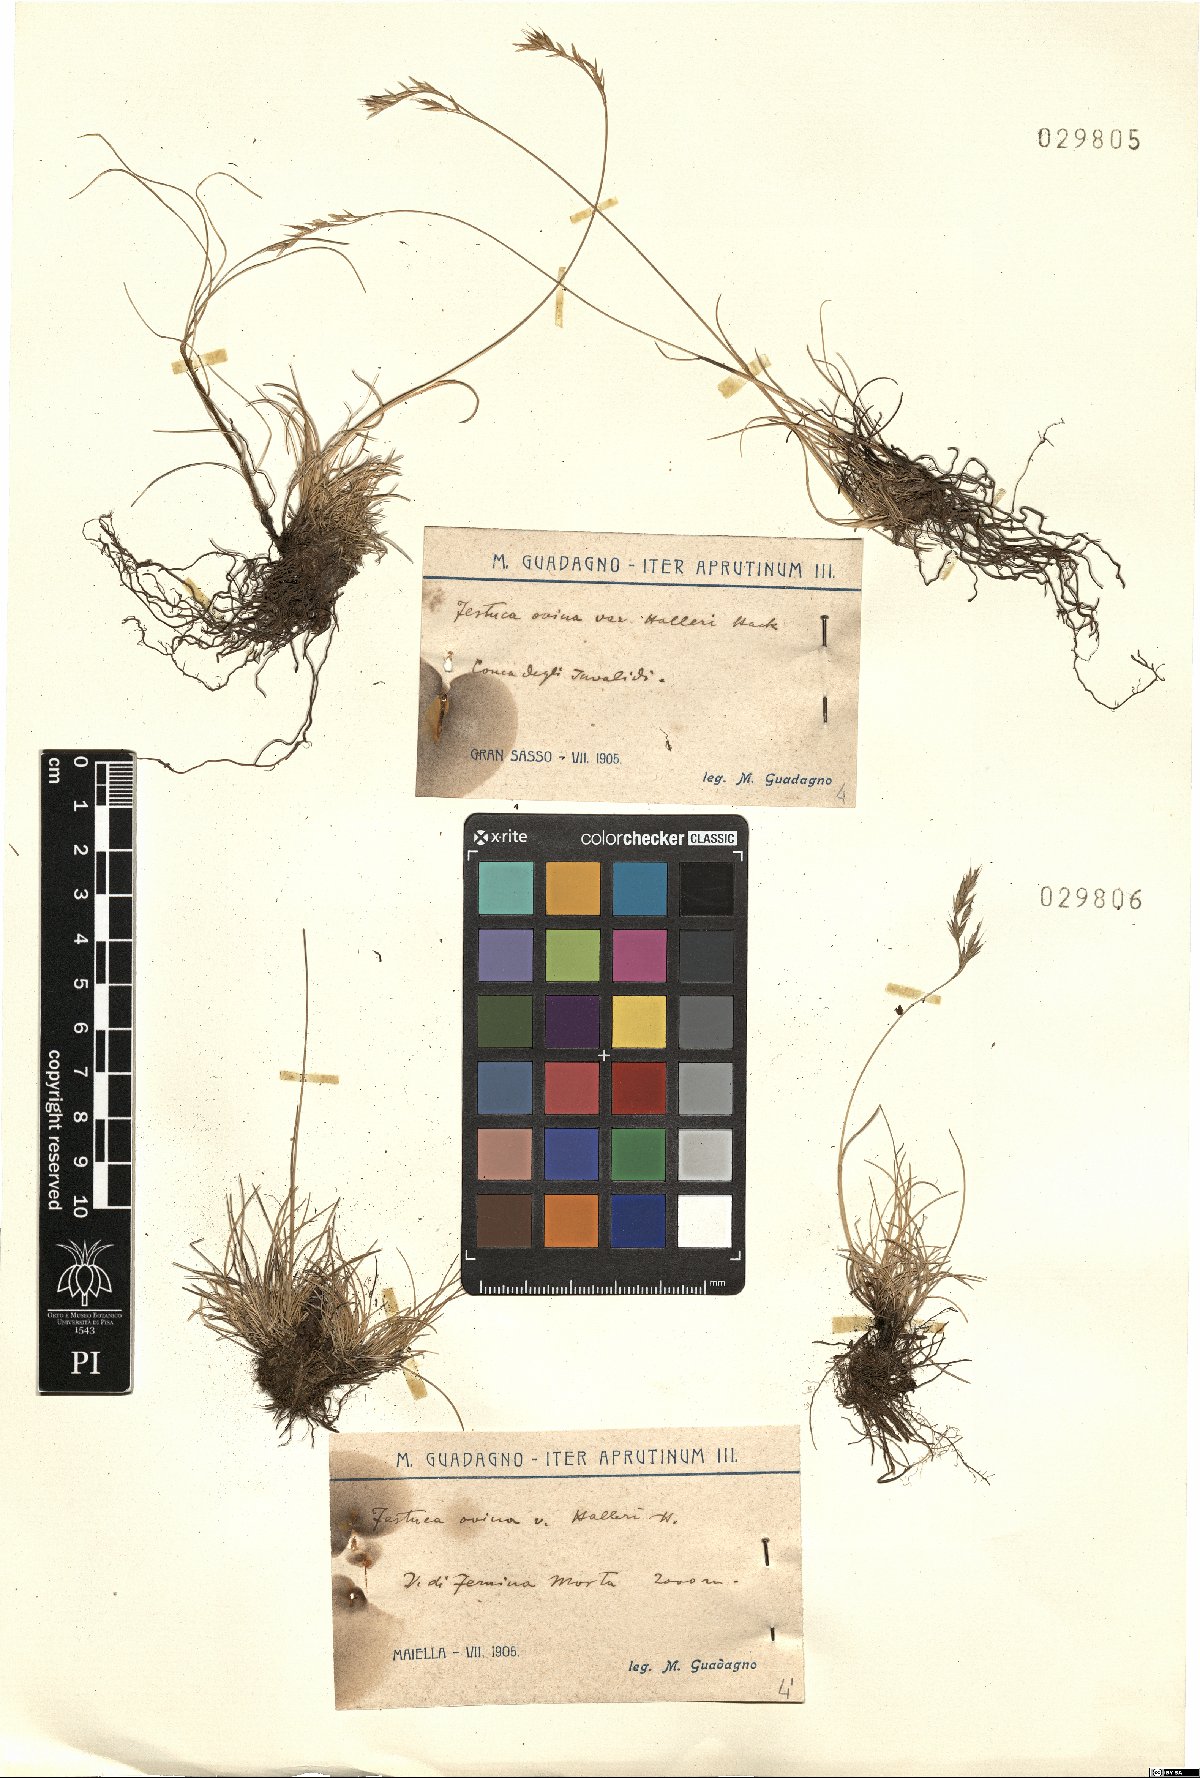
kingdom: Plantae
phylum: Tracheophyta
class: Liliopsida
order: Poales
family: Poaceae
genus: Festuca
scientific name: Festuca alfrediana
